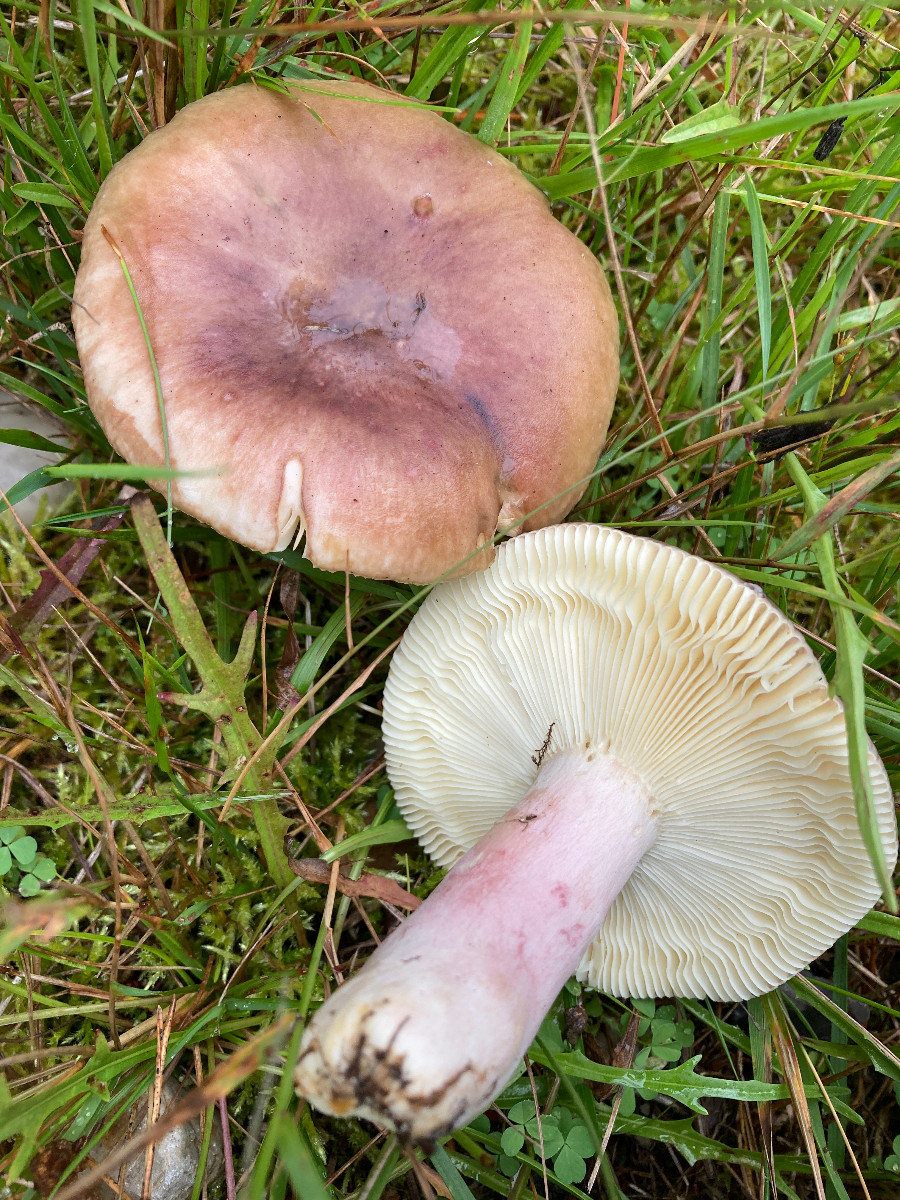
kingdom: Fungi
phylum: Basidiomycota
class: Agaricomycetes
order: Russulales
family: Russulaceae
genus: Russula
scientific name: Russula sardonia
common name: citronbladet skørhat
